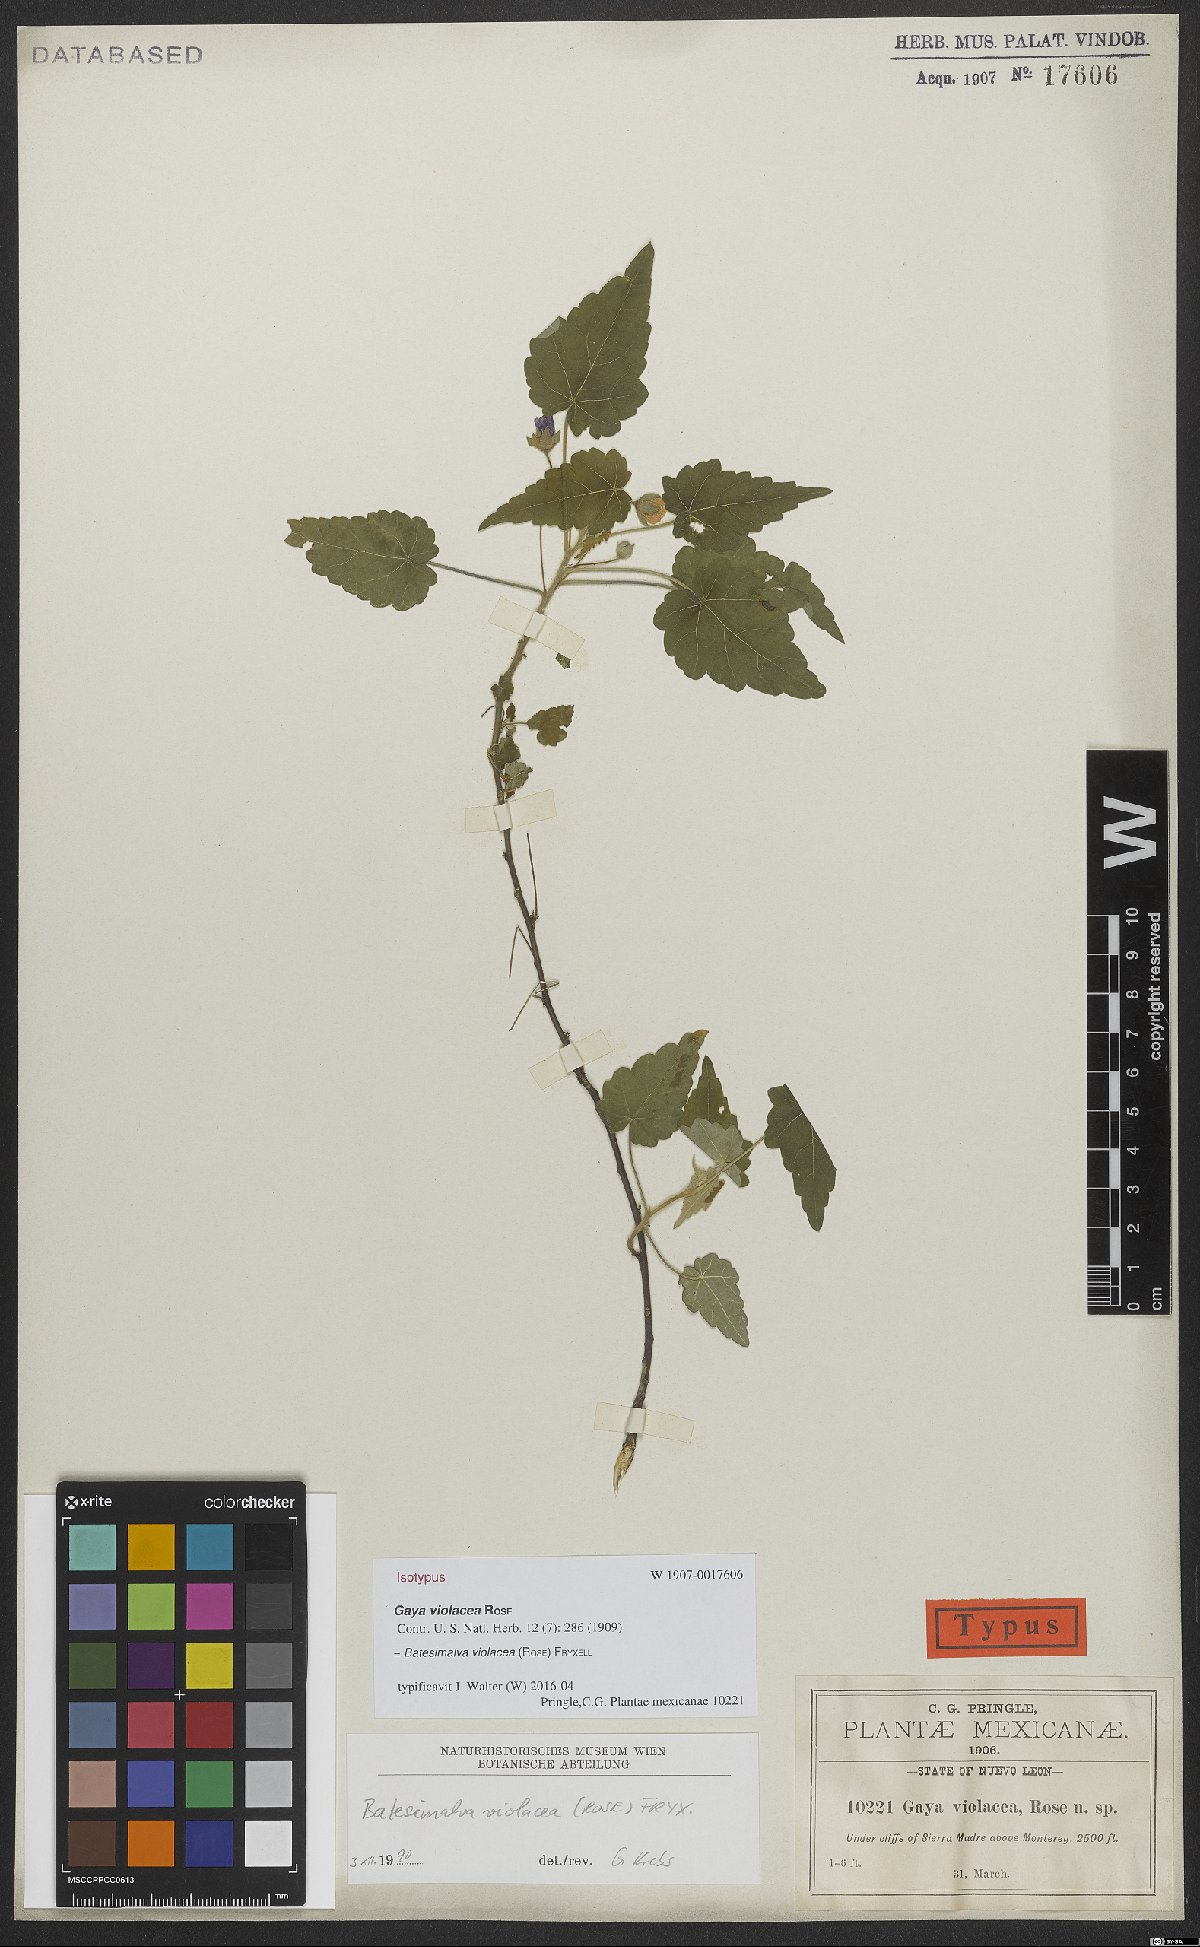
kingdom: Plantae
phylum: Tracheophyta
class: Magnoliopsida
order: Malvales
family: Malvaceae
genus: Batesimalva
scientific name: Batesimalva violacea
